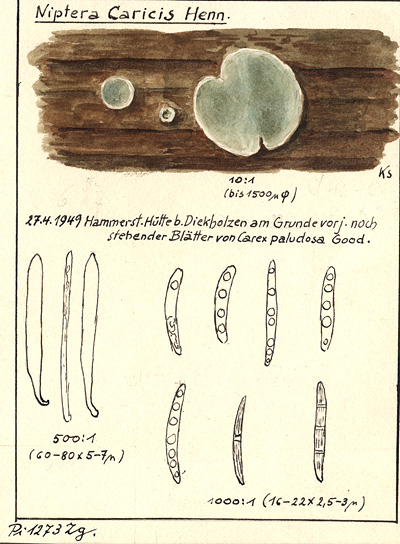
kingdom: Fungi
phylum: Ascomycota
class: Leotiomycetes
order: Helotiales
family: Mollisiaceae
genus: Niptera
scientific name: Niptera caricis
